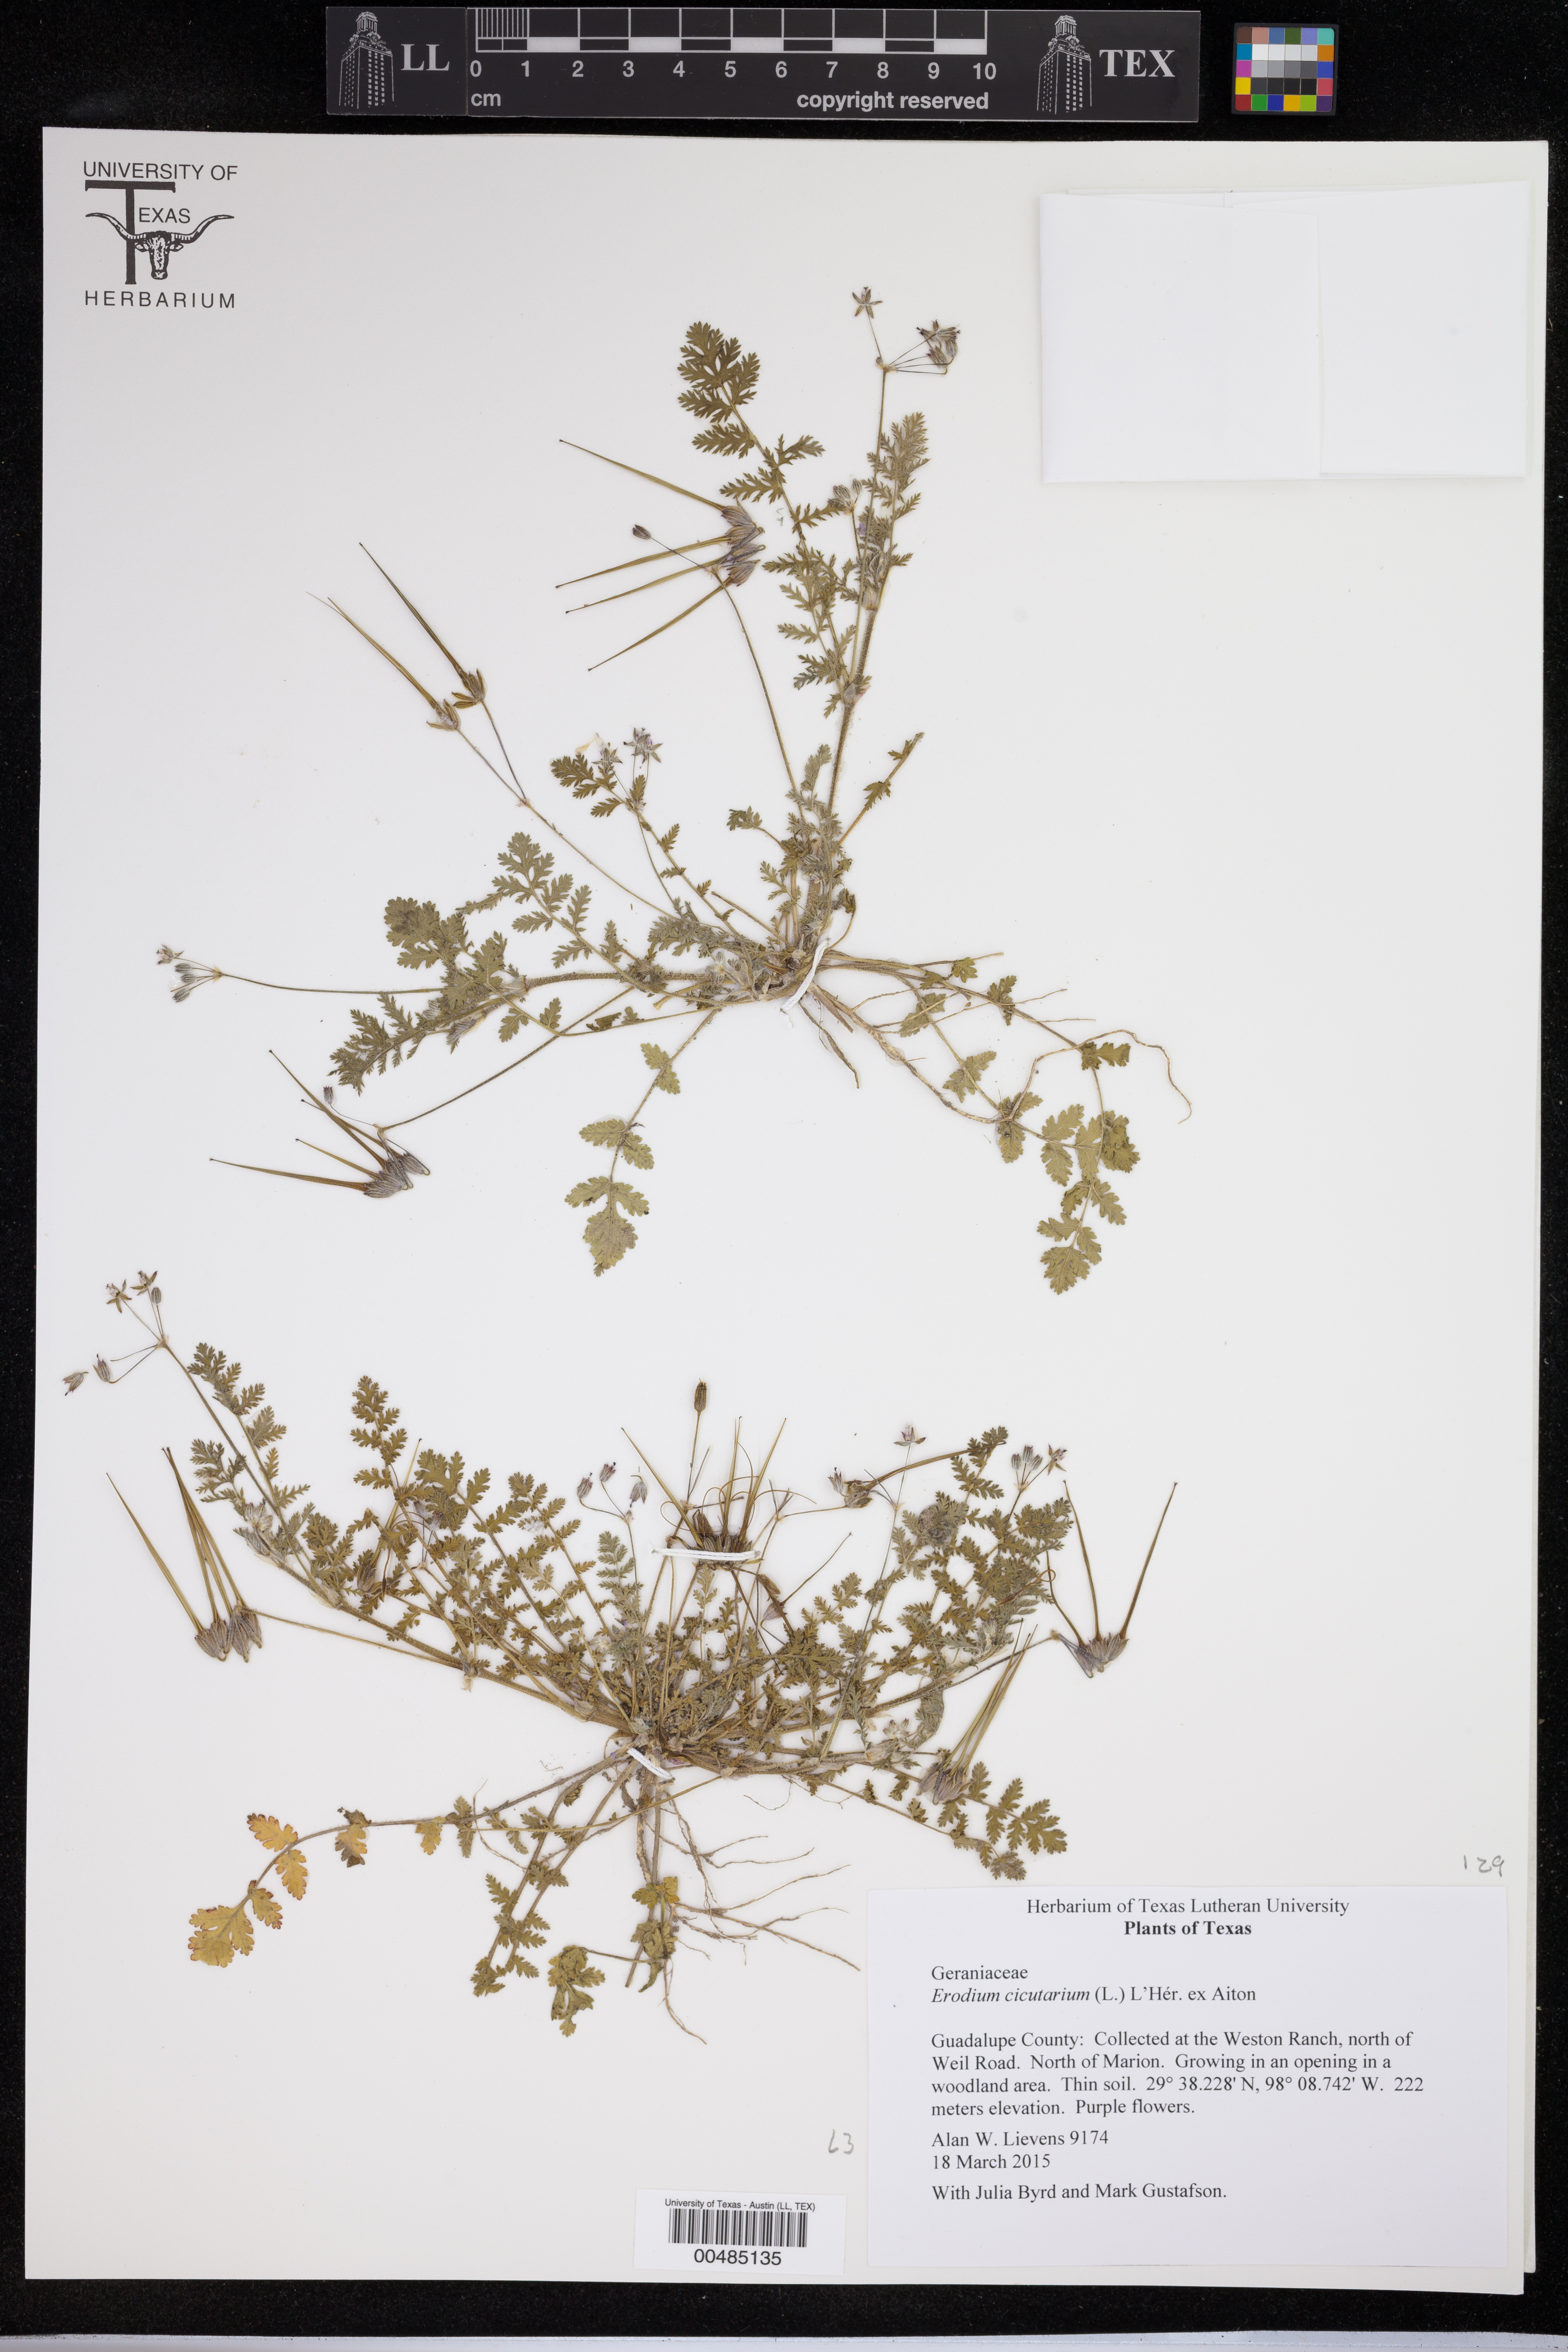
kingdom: Plantae
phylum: Tracheophyta
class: Magnoliopsida
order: Geraniales
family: Geraniaceae
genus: Erodium
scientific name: Erodium cicutarium
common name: Common stork's-bill
